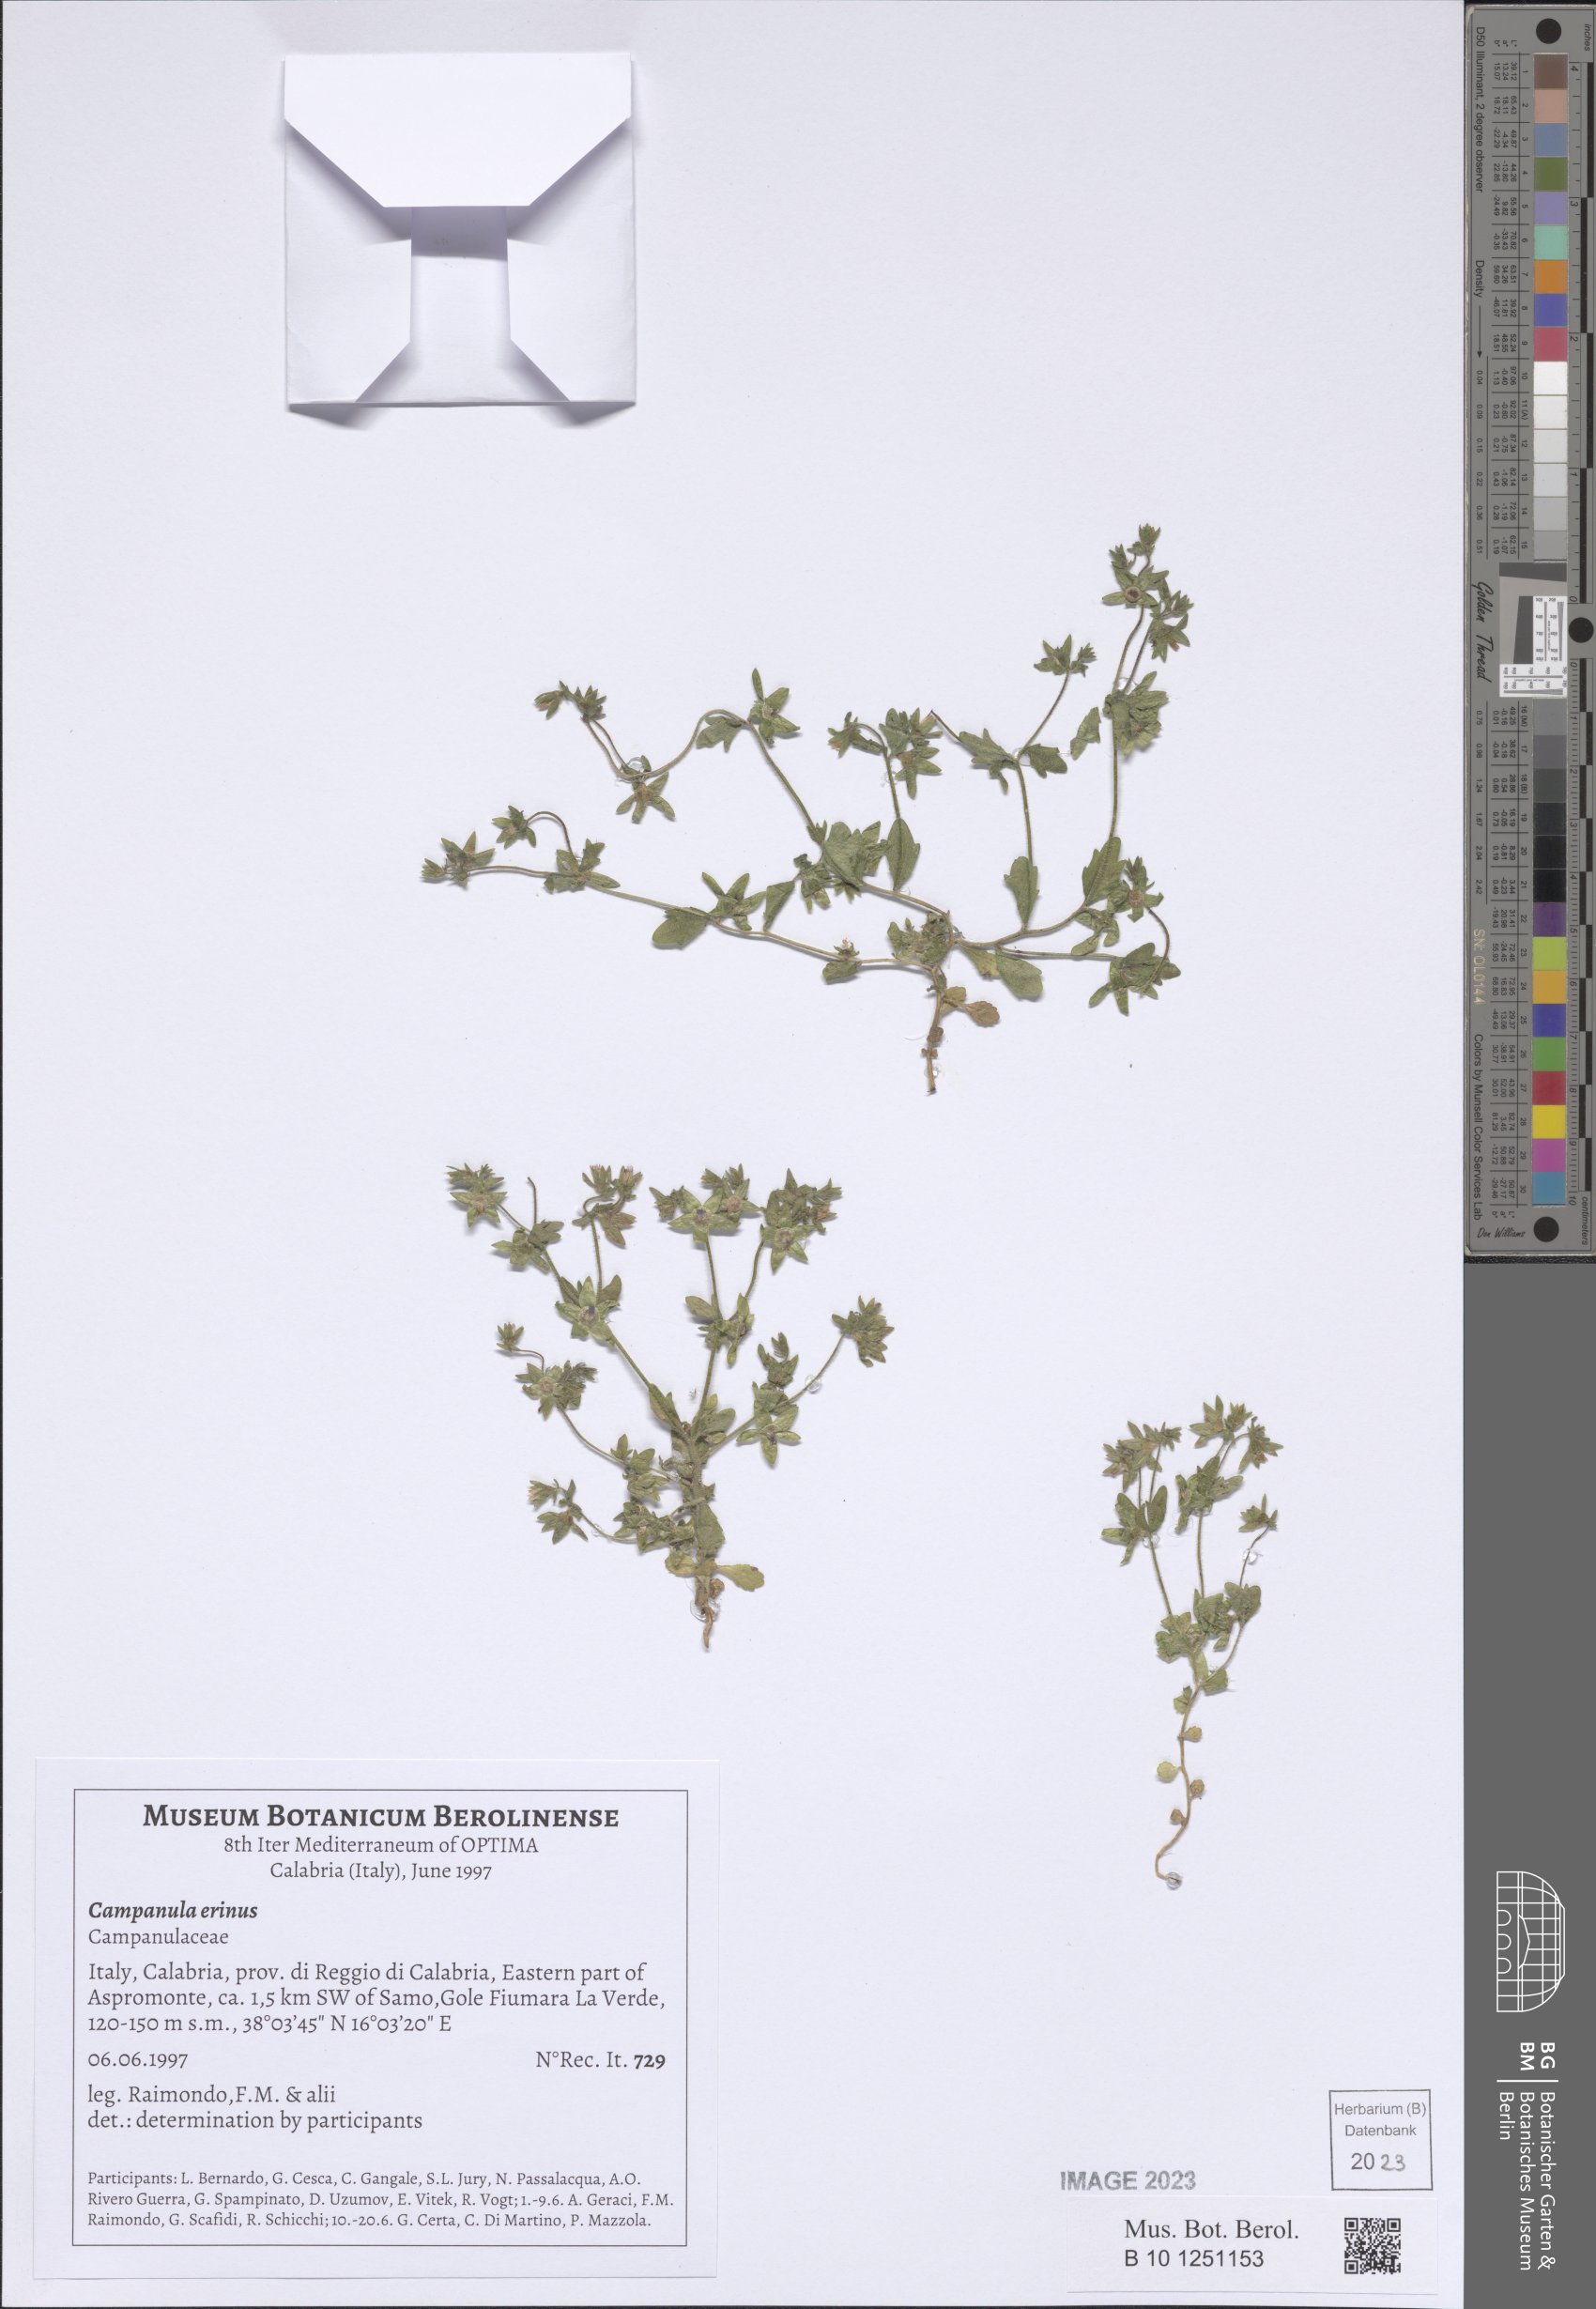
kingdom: Plantae
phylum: Tracheophyta
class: Magnoliopsida
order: Asterales
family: Campanulaceae
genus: Campanula
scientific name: Campanula erinus
